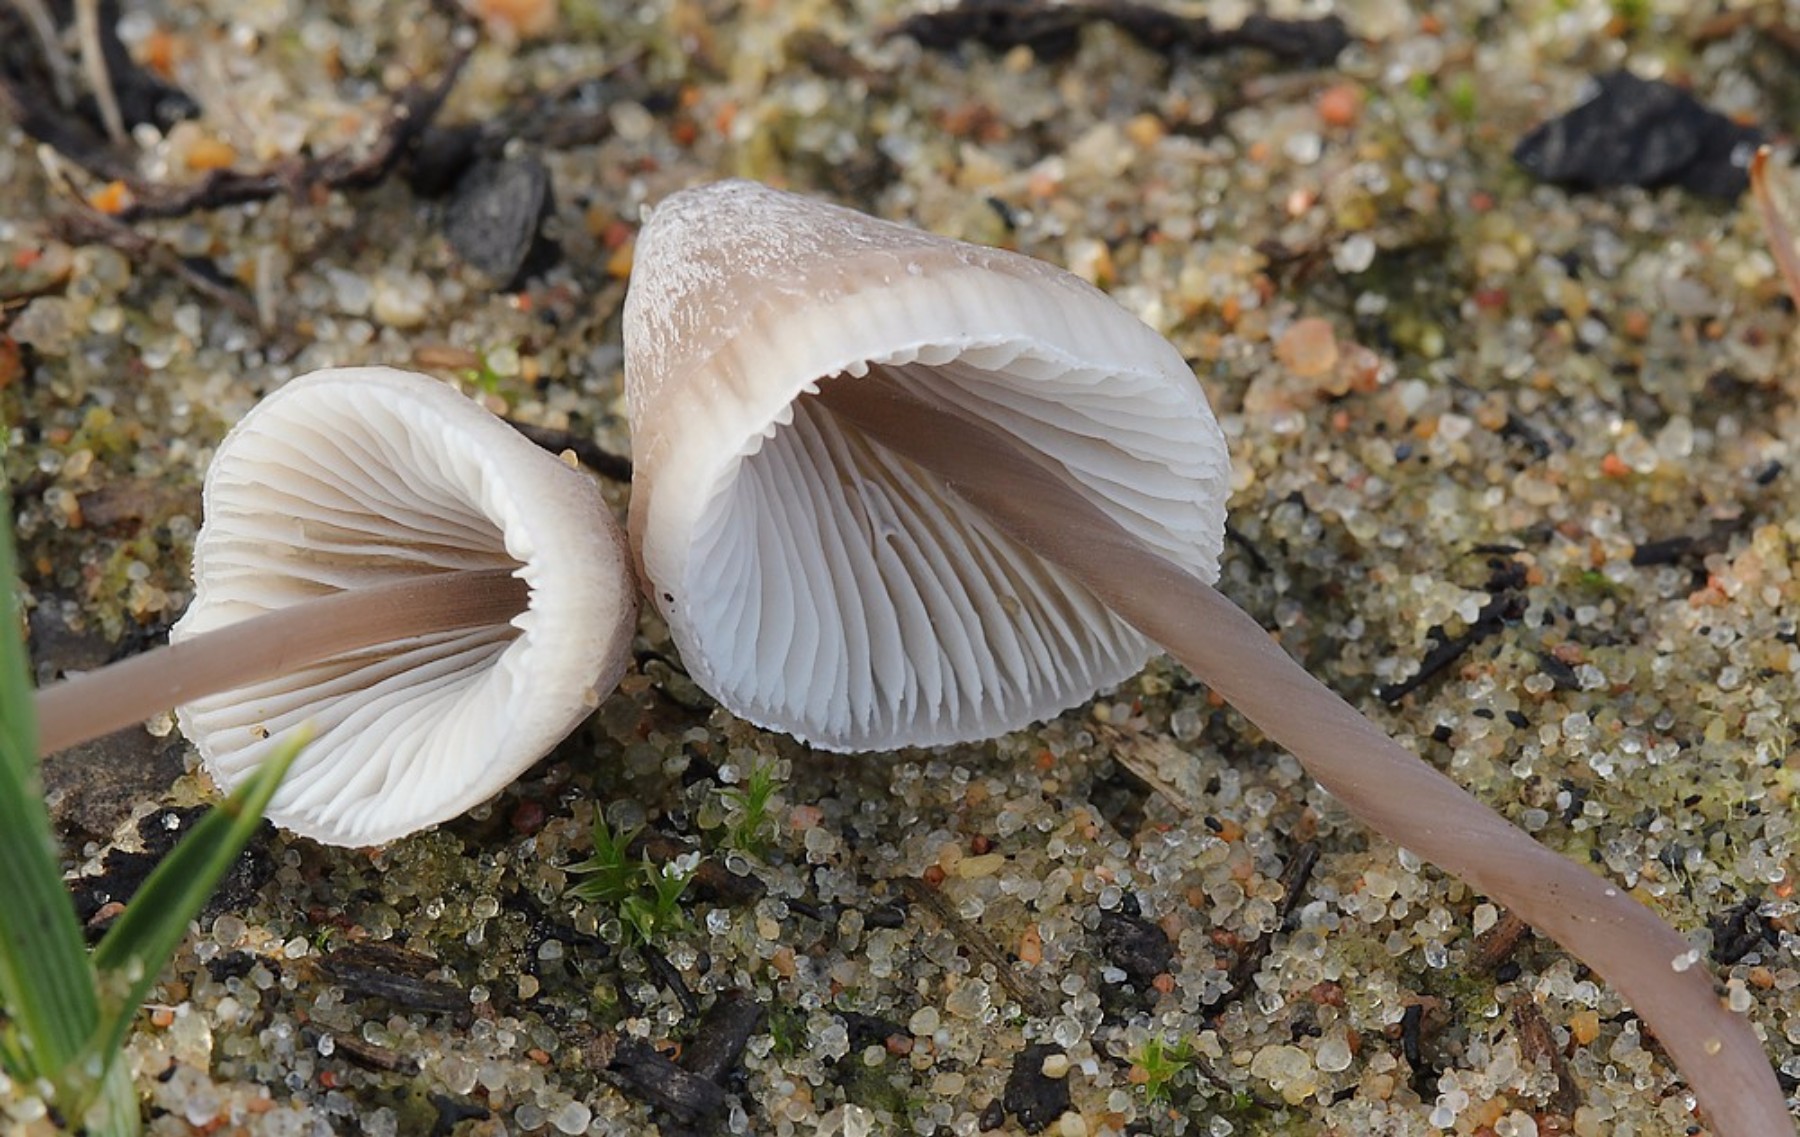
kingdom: Fungi
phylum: Basidiomycota
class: Agaricomycetes
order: Agaricales
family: Mycenaceae
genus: Mycena
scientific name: Mycena filopes
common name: jod-huesvamp
